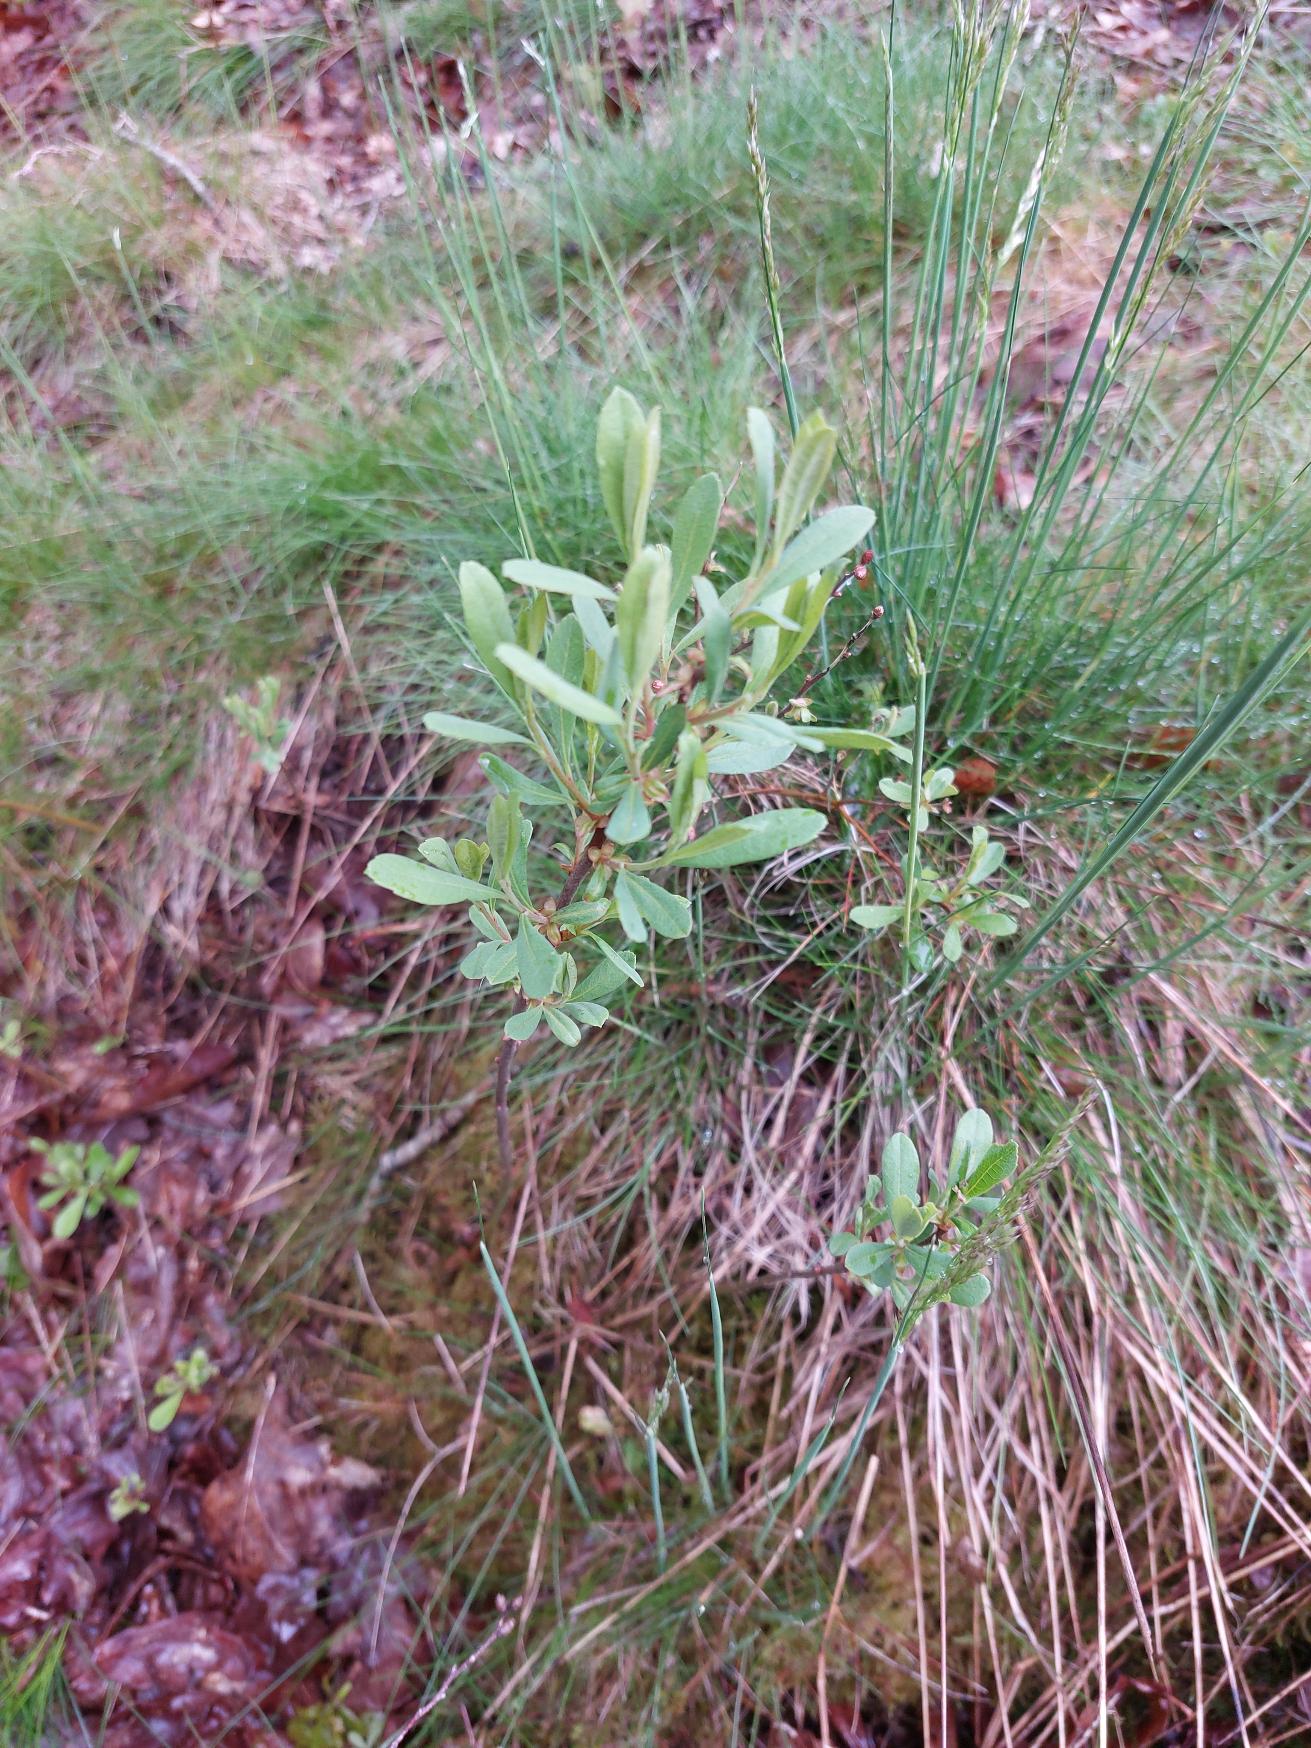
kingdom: Plantae
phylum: Tracheophyta
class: Magnoliopsida
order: Fagales
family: Myricaceae
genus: Myrica
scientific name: Myrica gale
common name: Pors
